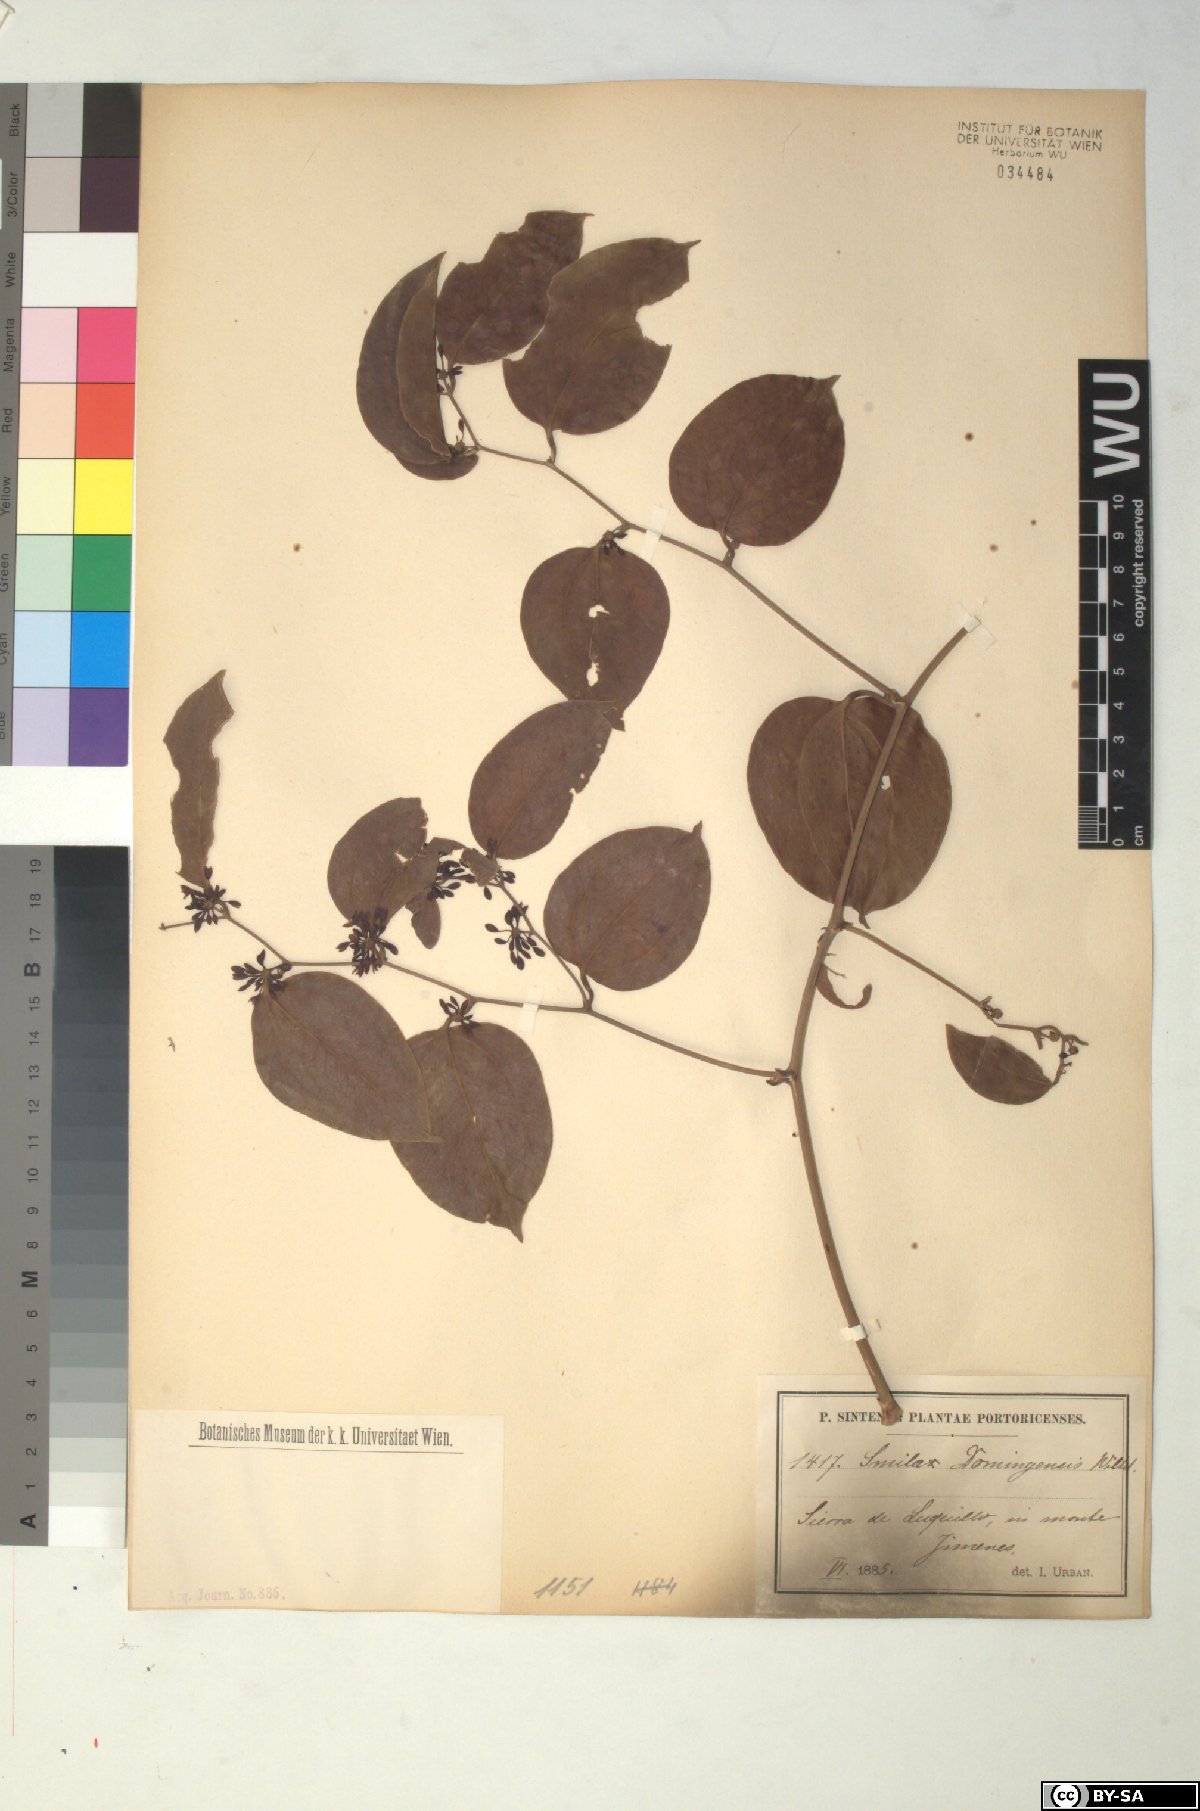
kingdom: Plantae
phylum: Tracheophyta
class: Liliopsida
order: Liliales
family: Smilacaceae
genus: Smilax
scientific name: Smilax domingensis
